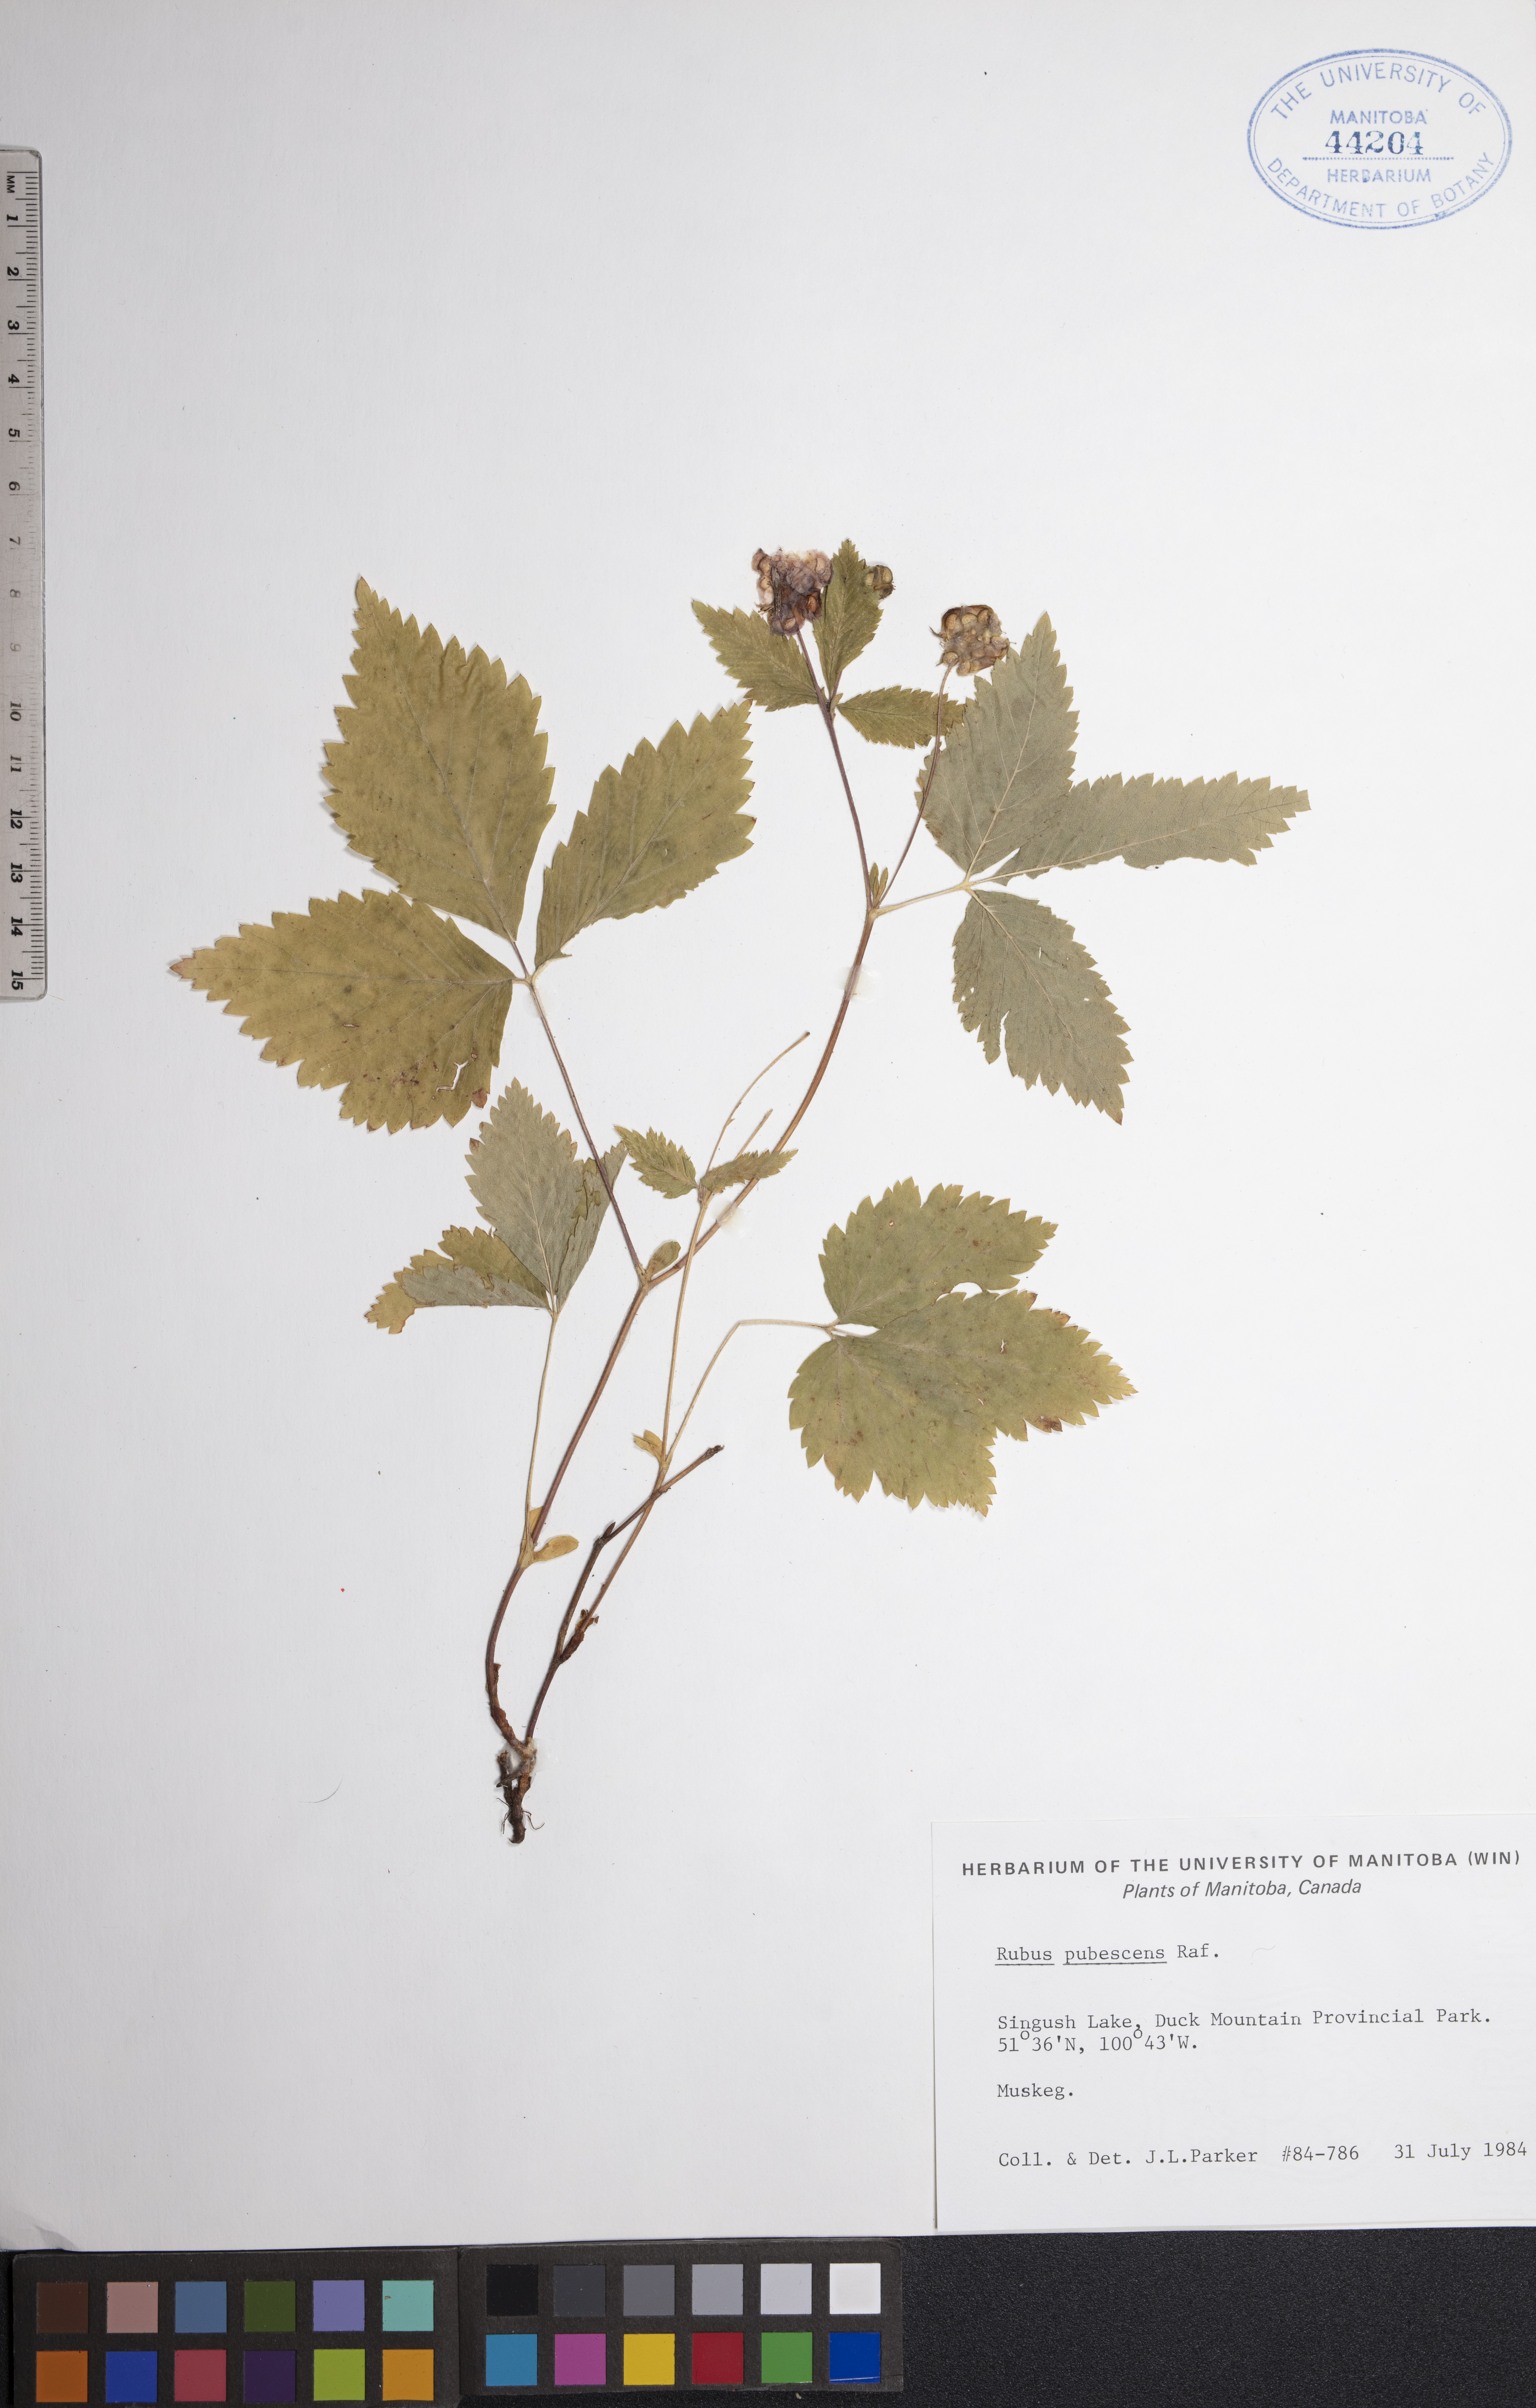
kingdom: Plantae
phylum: Tracheophyta
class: Magnoliopsida
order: Rosales
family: Rosaceae
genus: Rubus
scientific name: Rubus pubescens
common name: Dwarf raspberry
